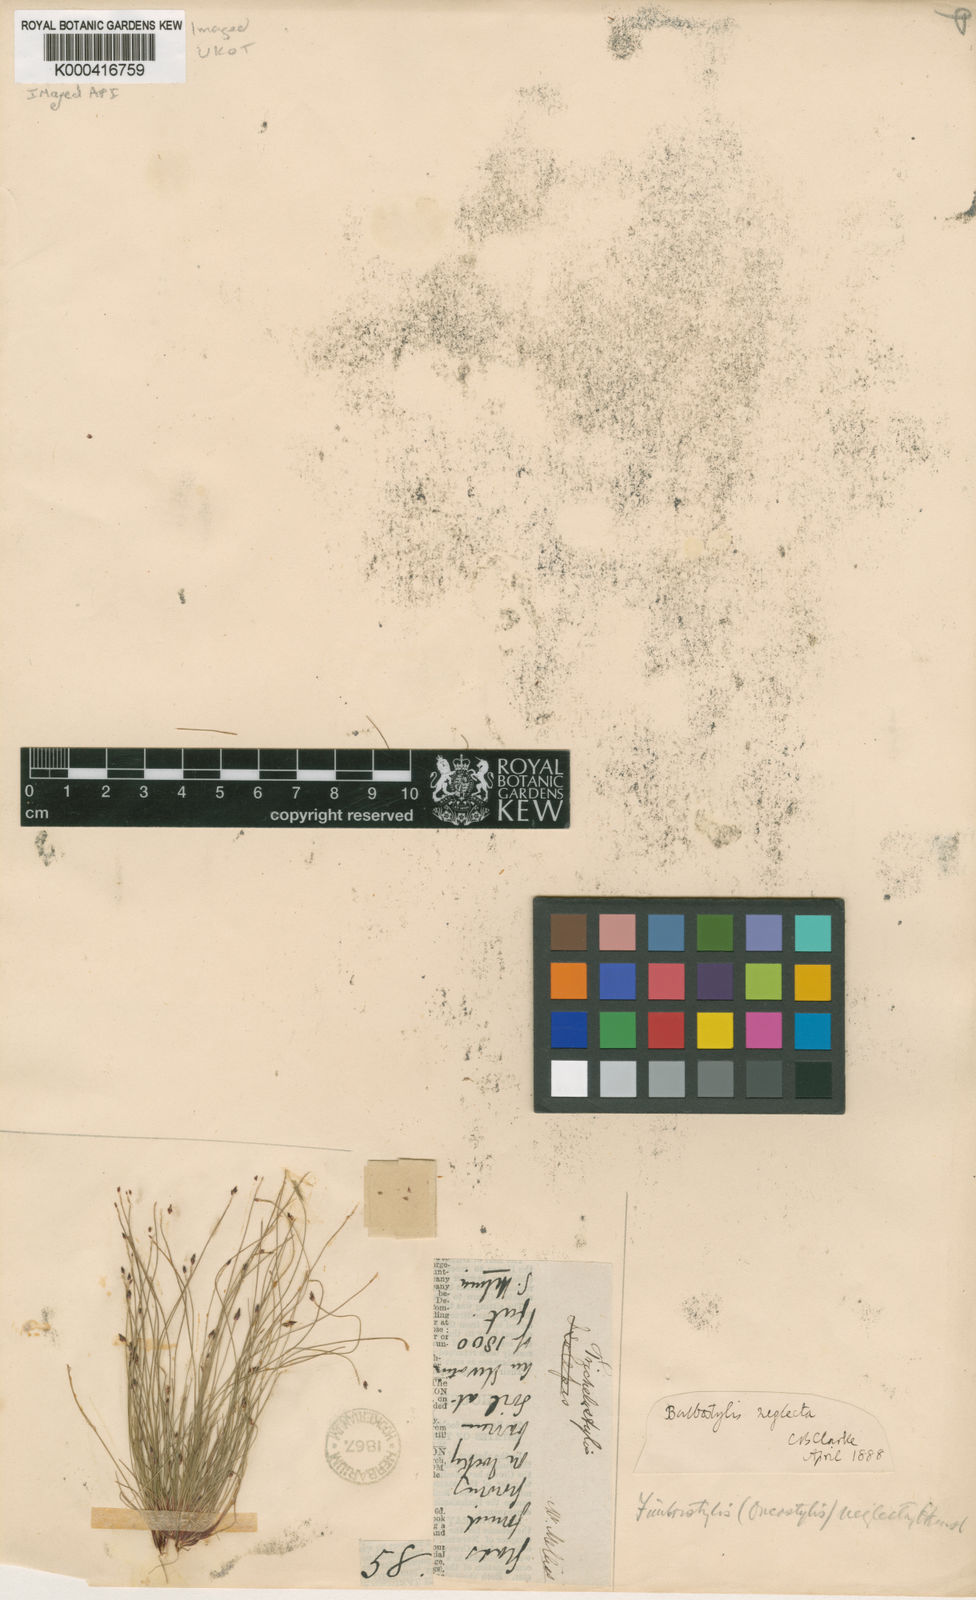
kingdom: Plantae
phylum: Tracheophyta
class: Liliopsida
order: Poales
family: Cyperaceae
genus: Bulbostylis
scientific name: Bulbostylis neglecta
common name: Neglected tuft sedge
